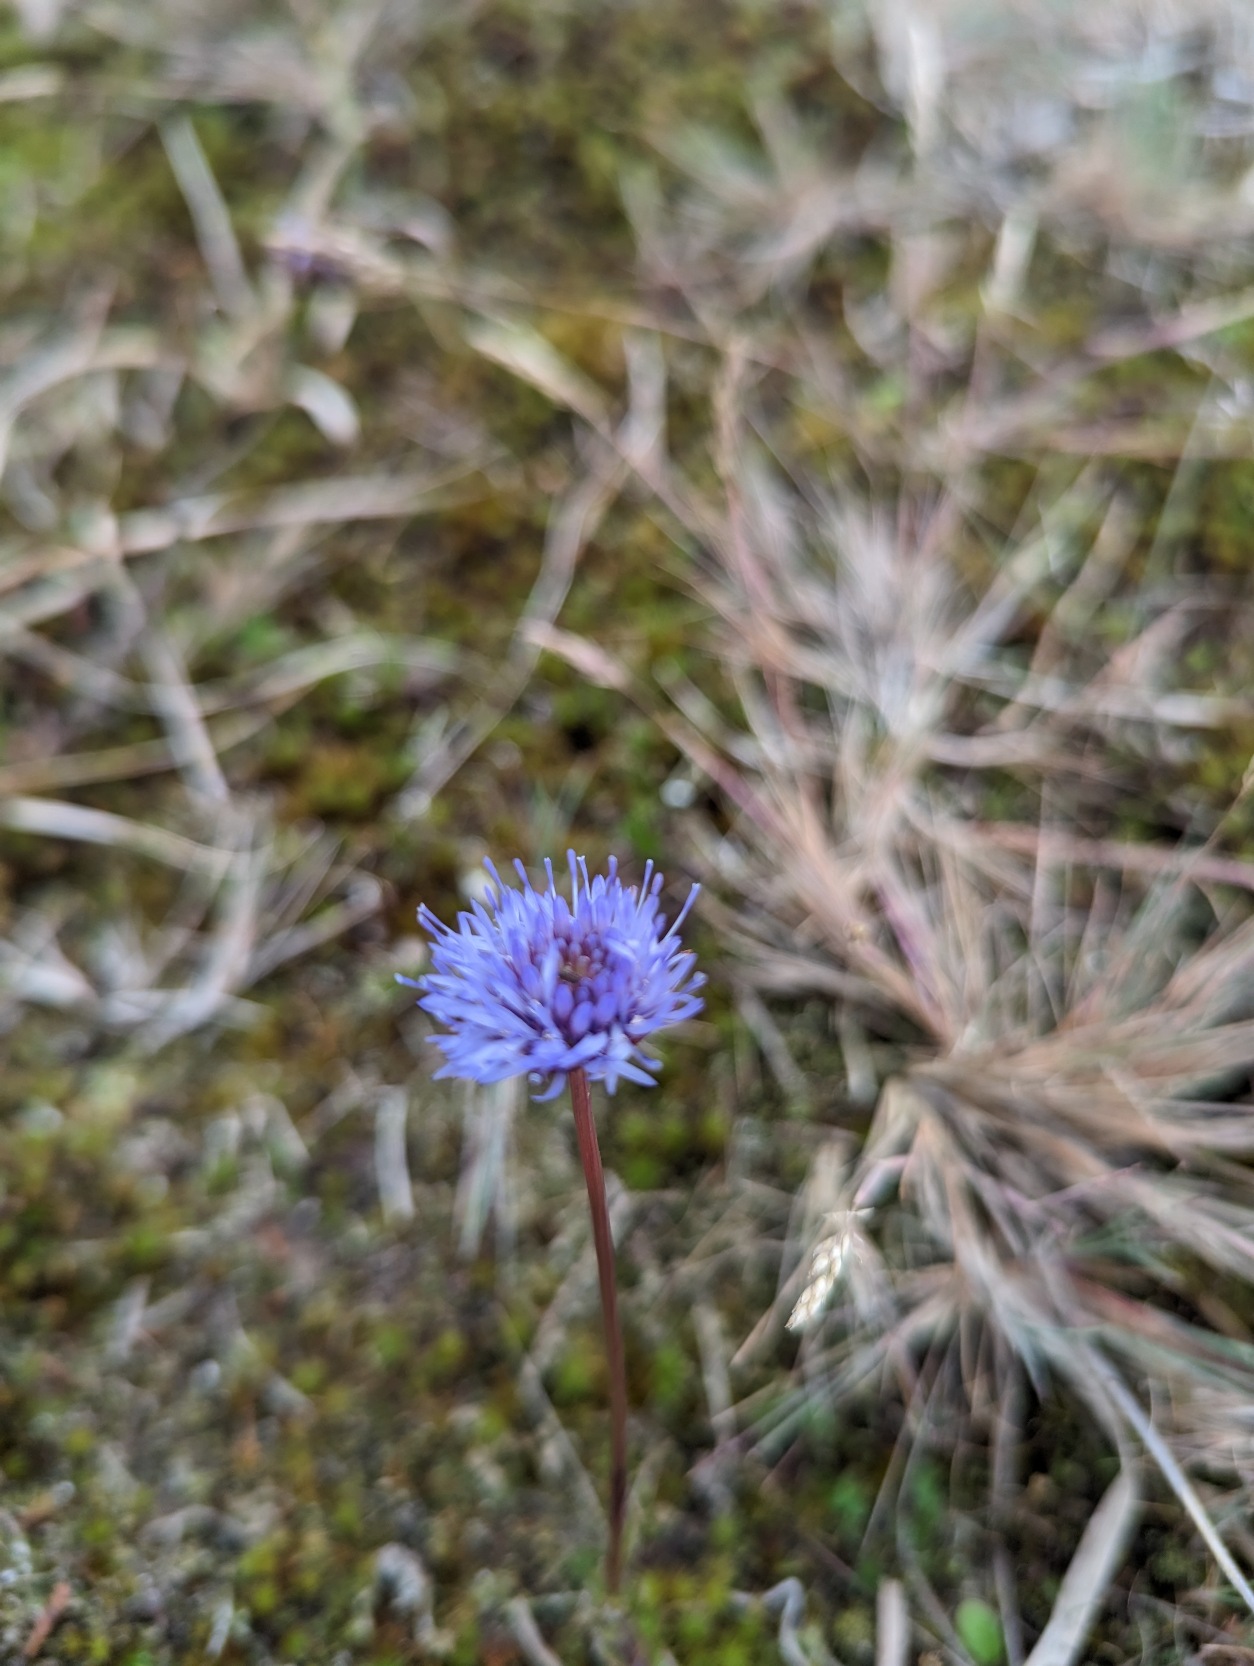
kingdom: Plantae
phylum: Tracheophyta
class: Magnoliopsida
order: Asterales
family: Campanulaceae
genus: Jasione
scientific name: Jasione montana
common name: Blåmunke
